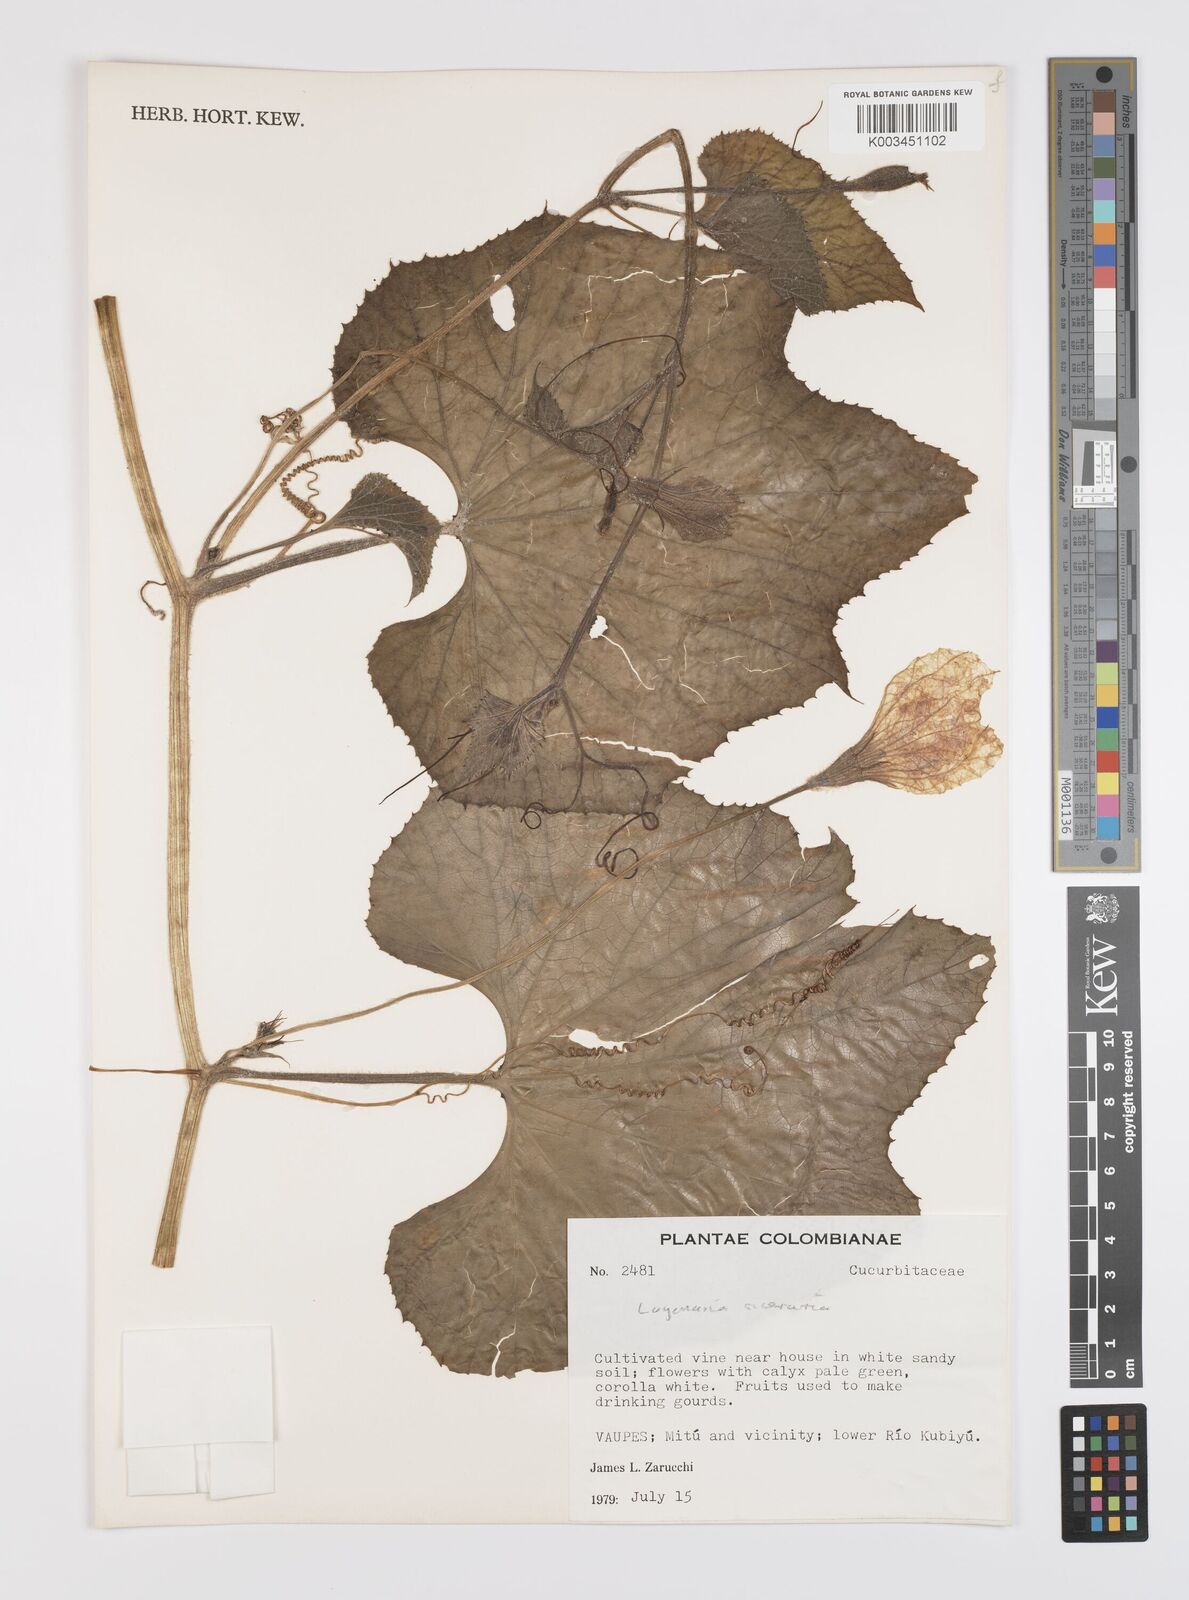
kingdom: Plantae
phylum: Tracheophyta
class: Magnoliopsida
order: Cucurbitales
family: Cucurbitaceae
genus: Lagenaria
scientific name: Lagenaria siceraria
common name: Bottle gourd
